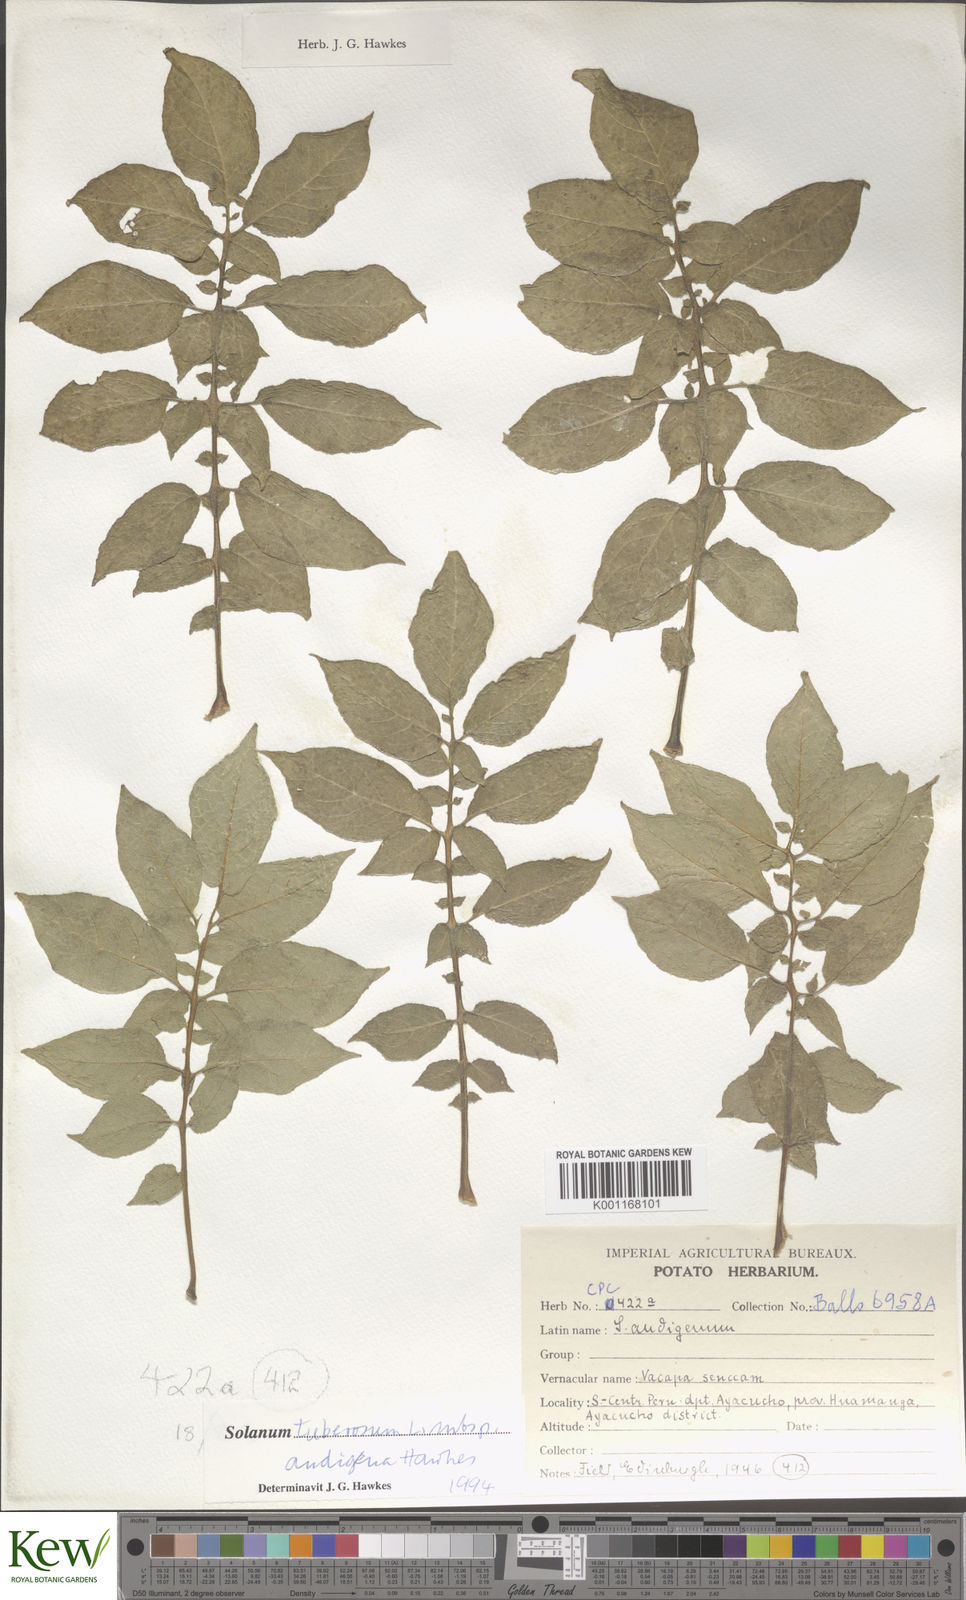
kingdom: Plantae
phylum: Tracheophyta
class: Magnoliopsida
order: Solanales
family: Solanaceae
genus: Solanum
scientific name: Solanum tuberosum
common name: Potato
